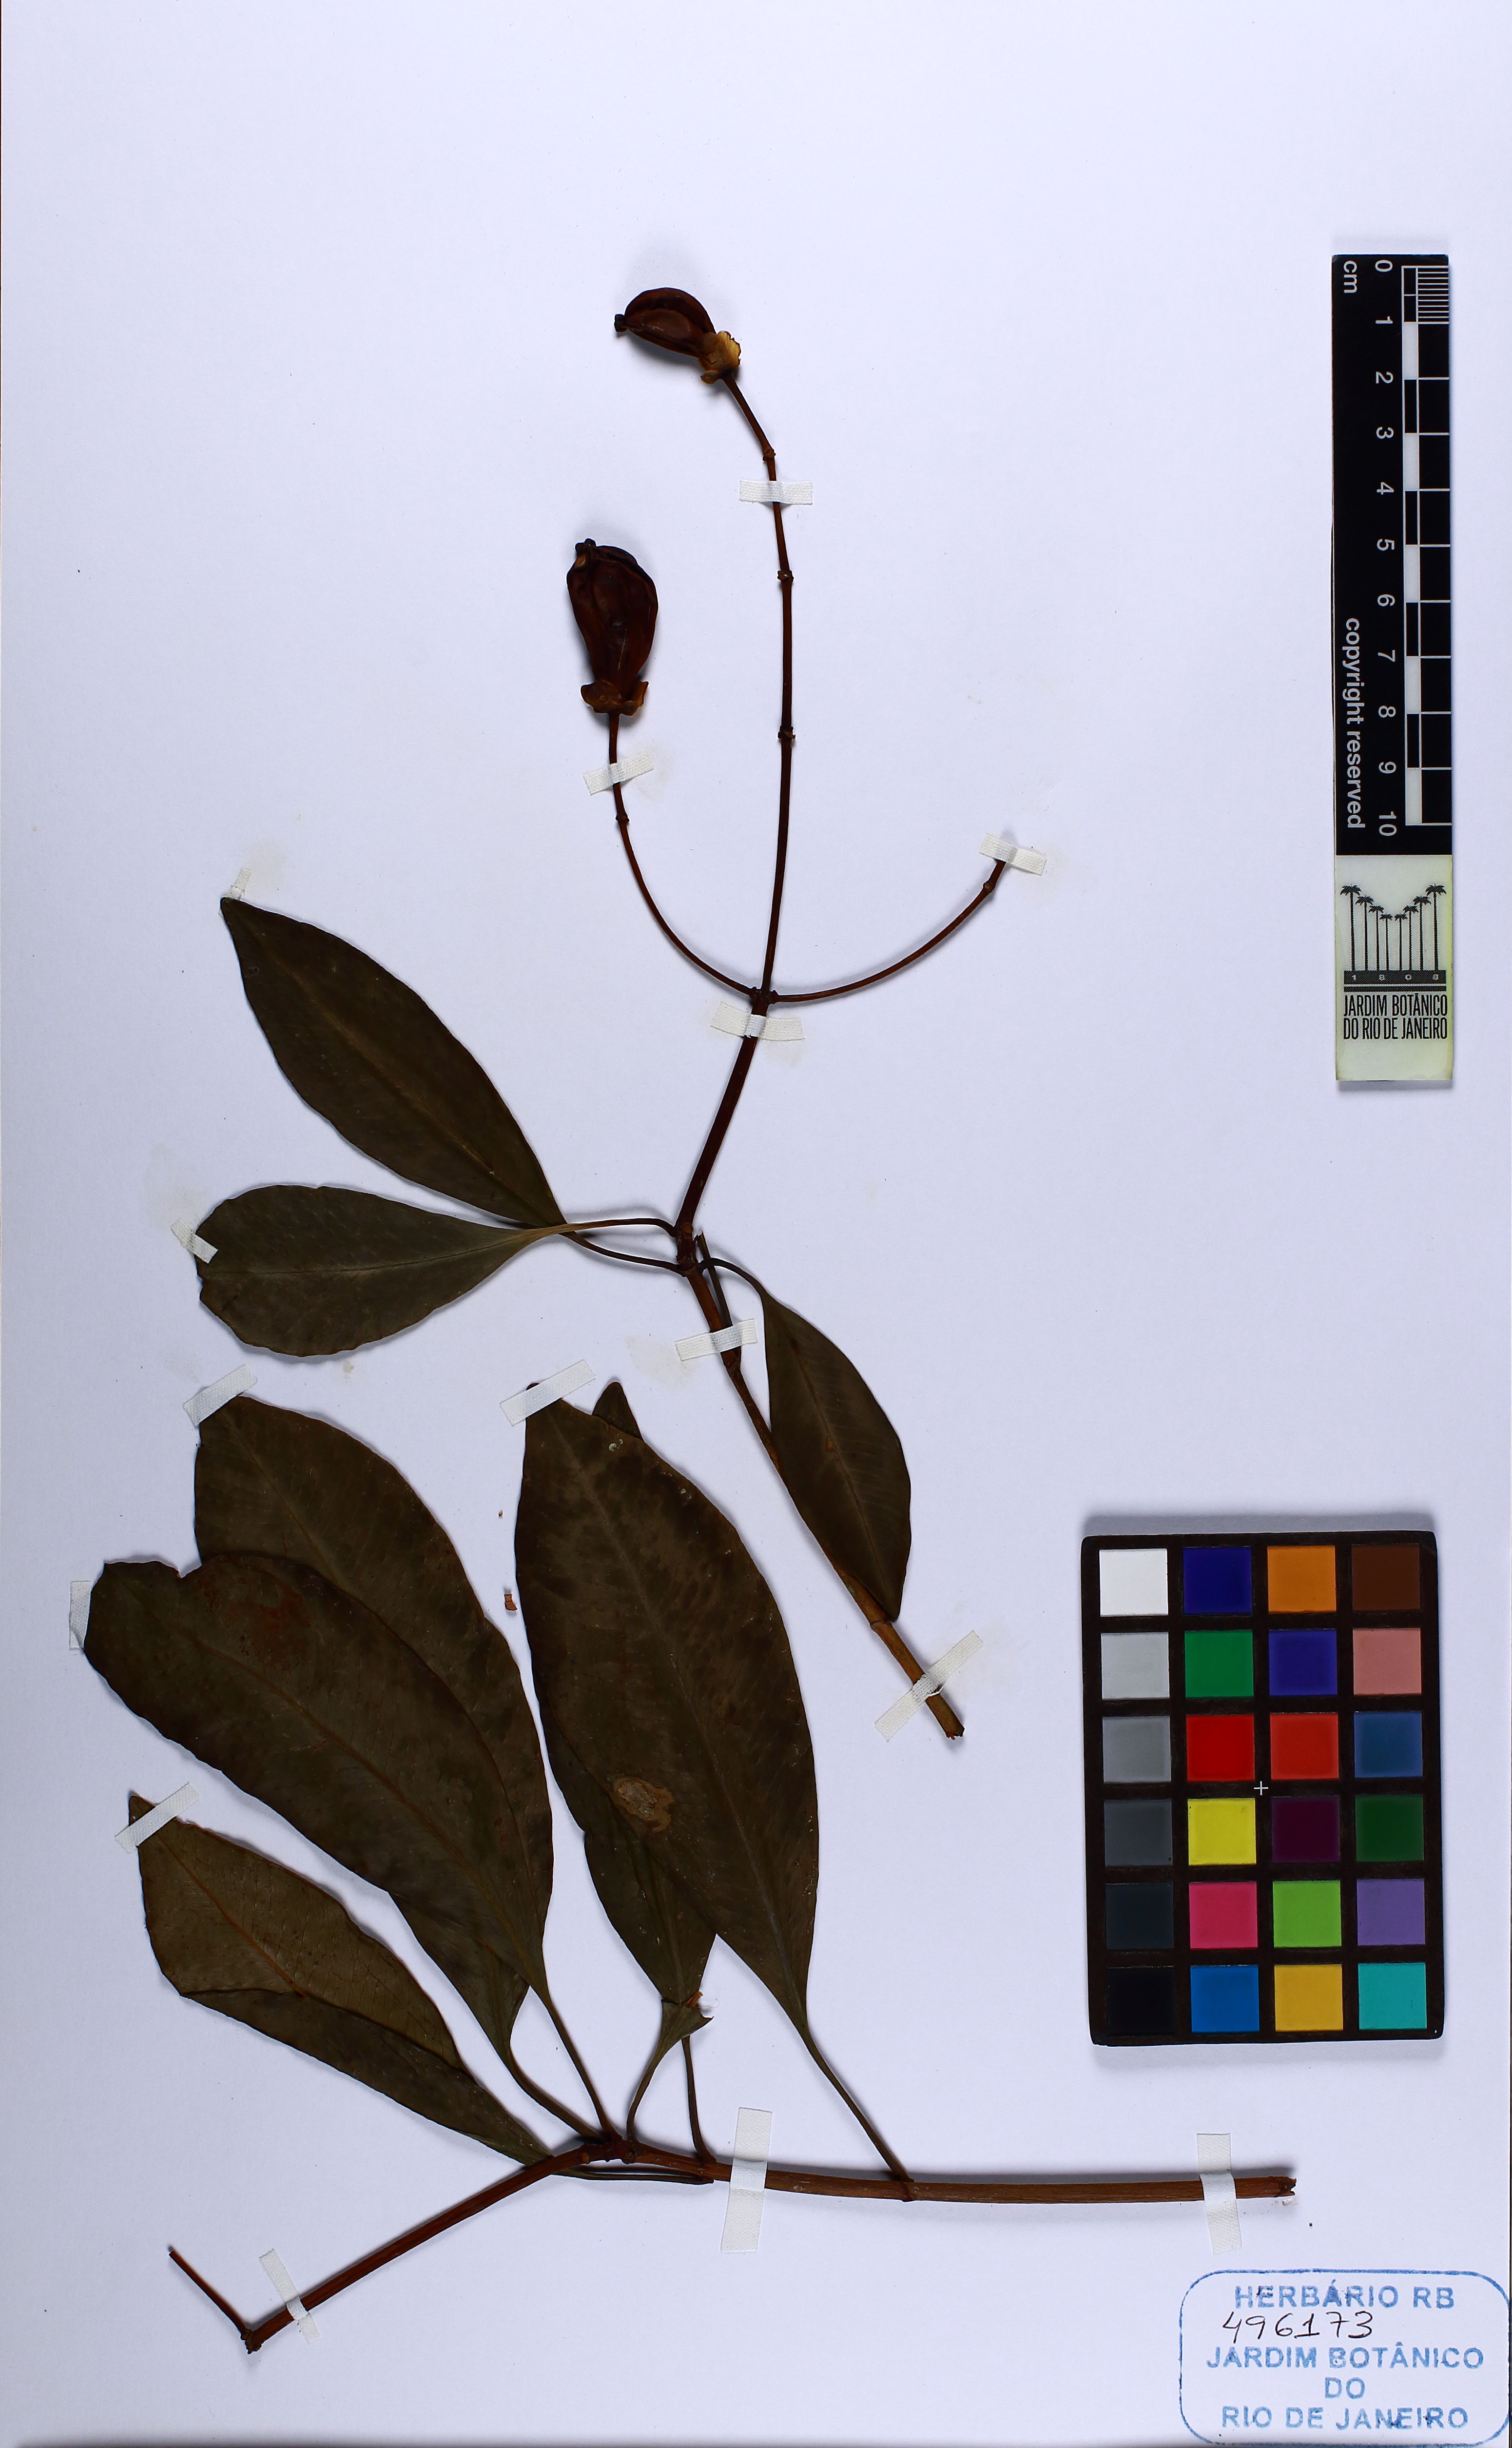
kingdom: Plantae
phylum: Tracheophyta
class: Magnoliopsida
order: Malpighiales
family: Clusiaceae
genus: Tovomita
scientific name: Tovomita
